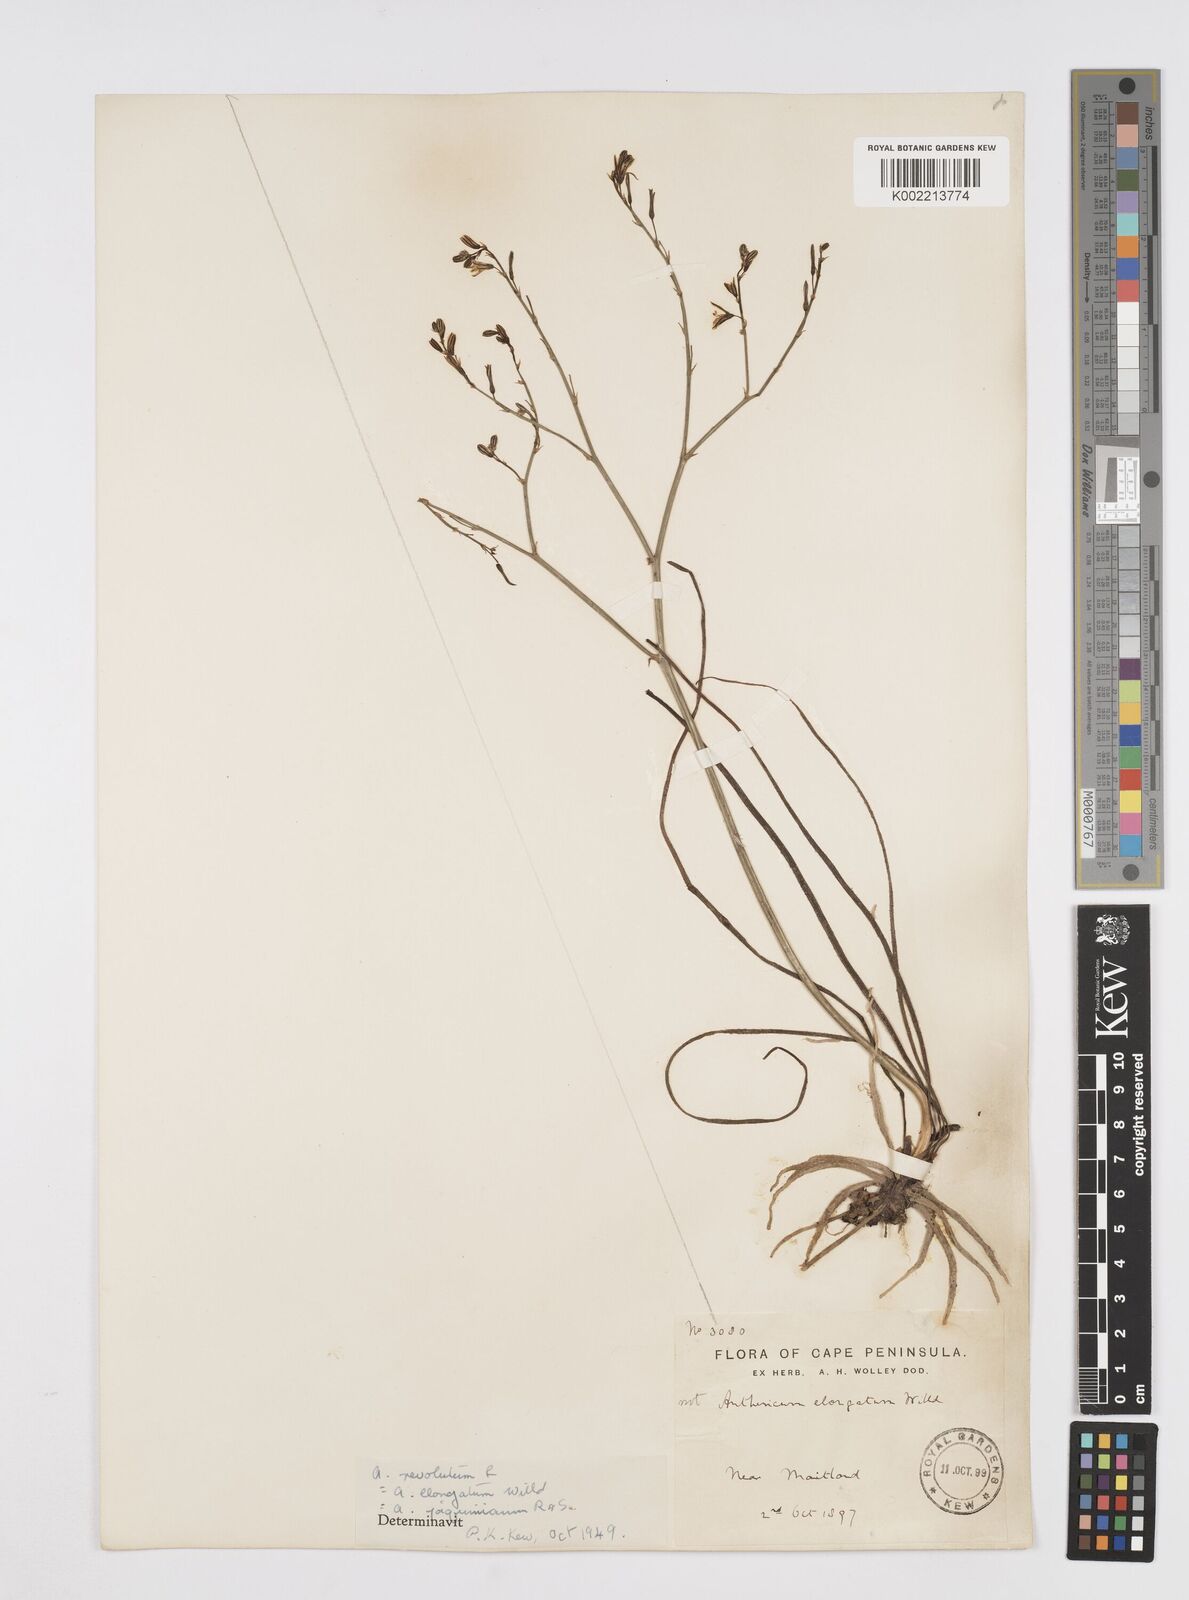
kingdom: Plantae
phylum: Tracheophyta
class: Liliopsida
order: Asparagales
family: Asphodelaceae
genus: Trachyandra
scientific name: Trachyandra revoluta
